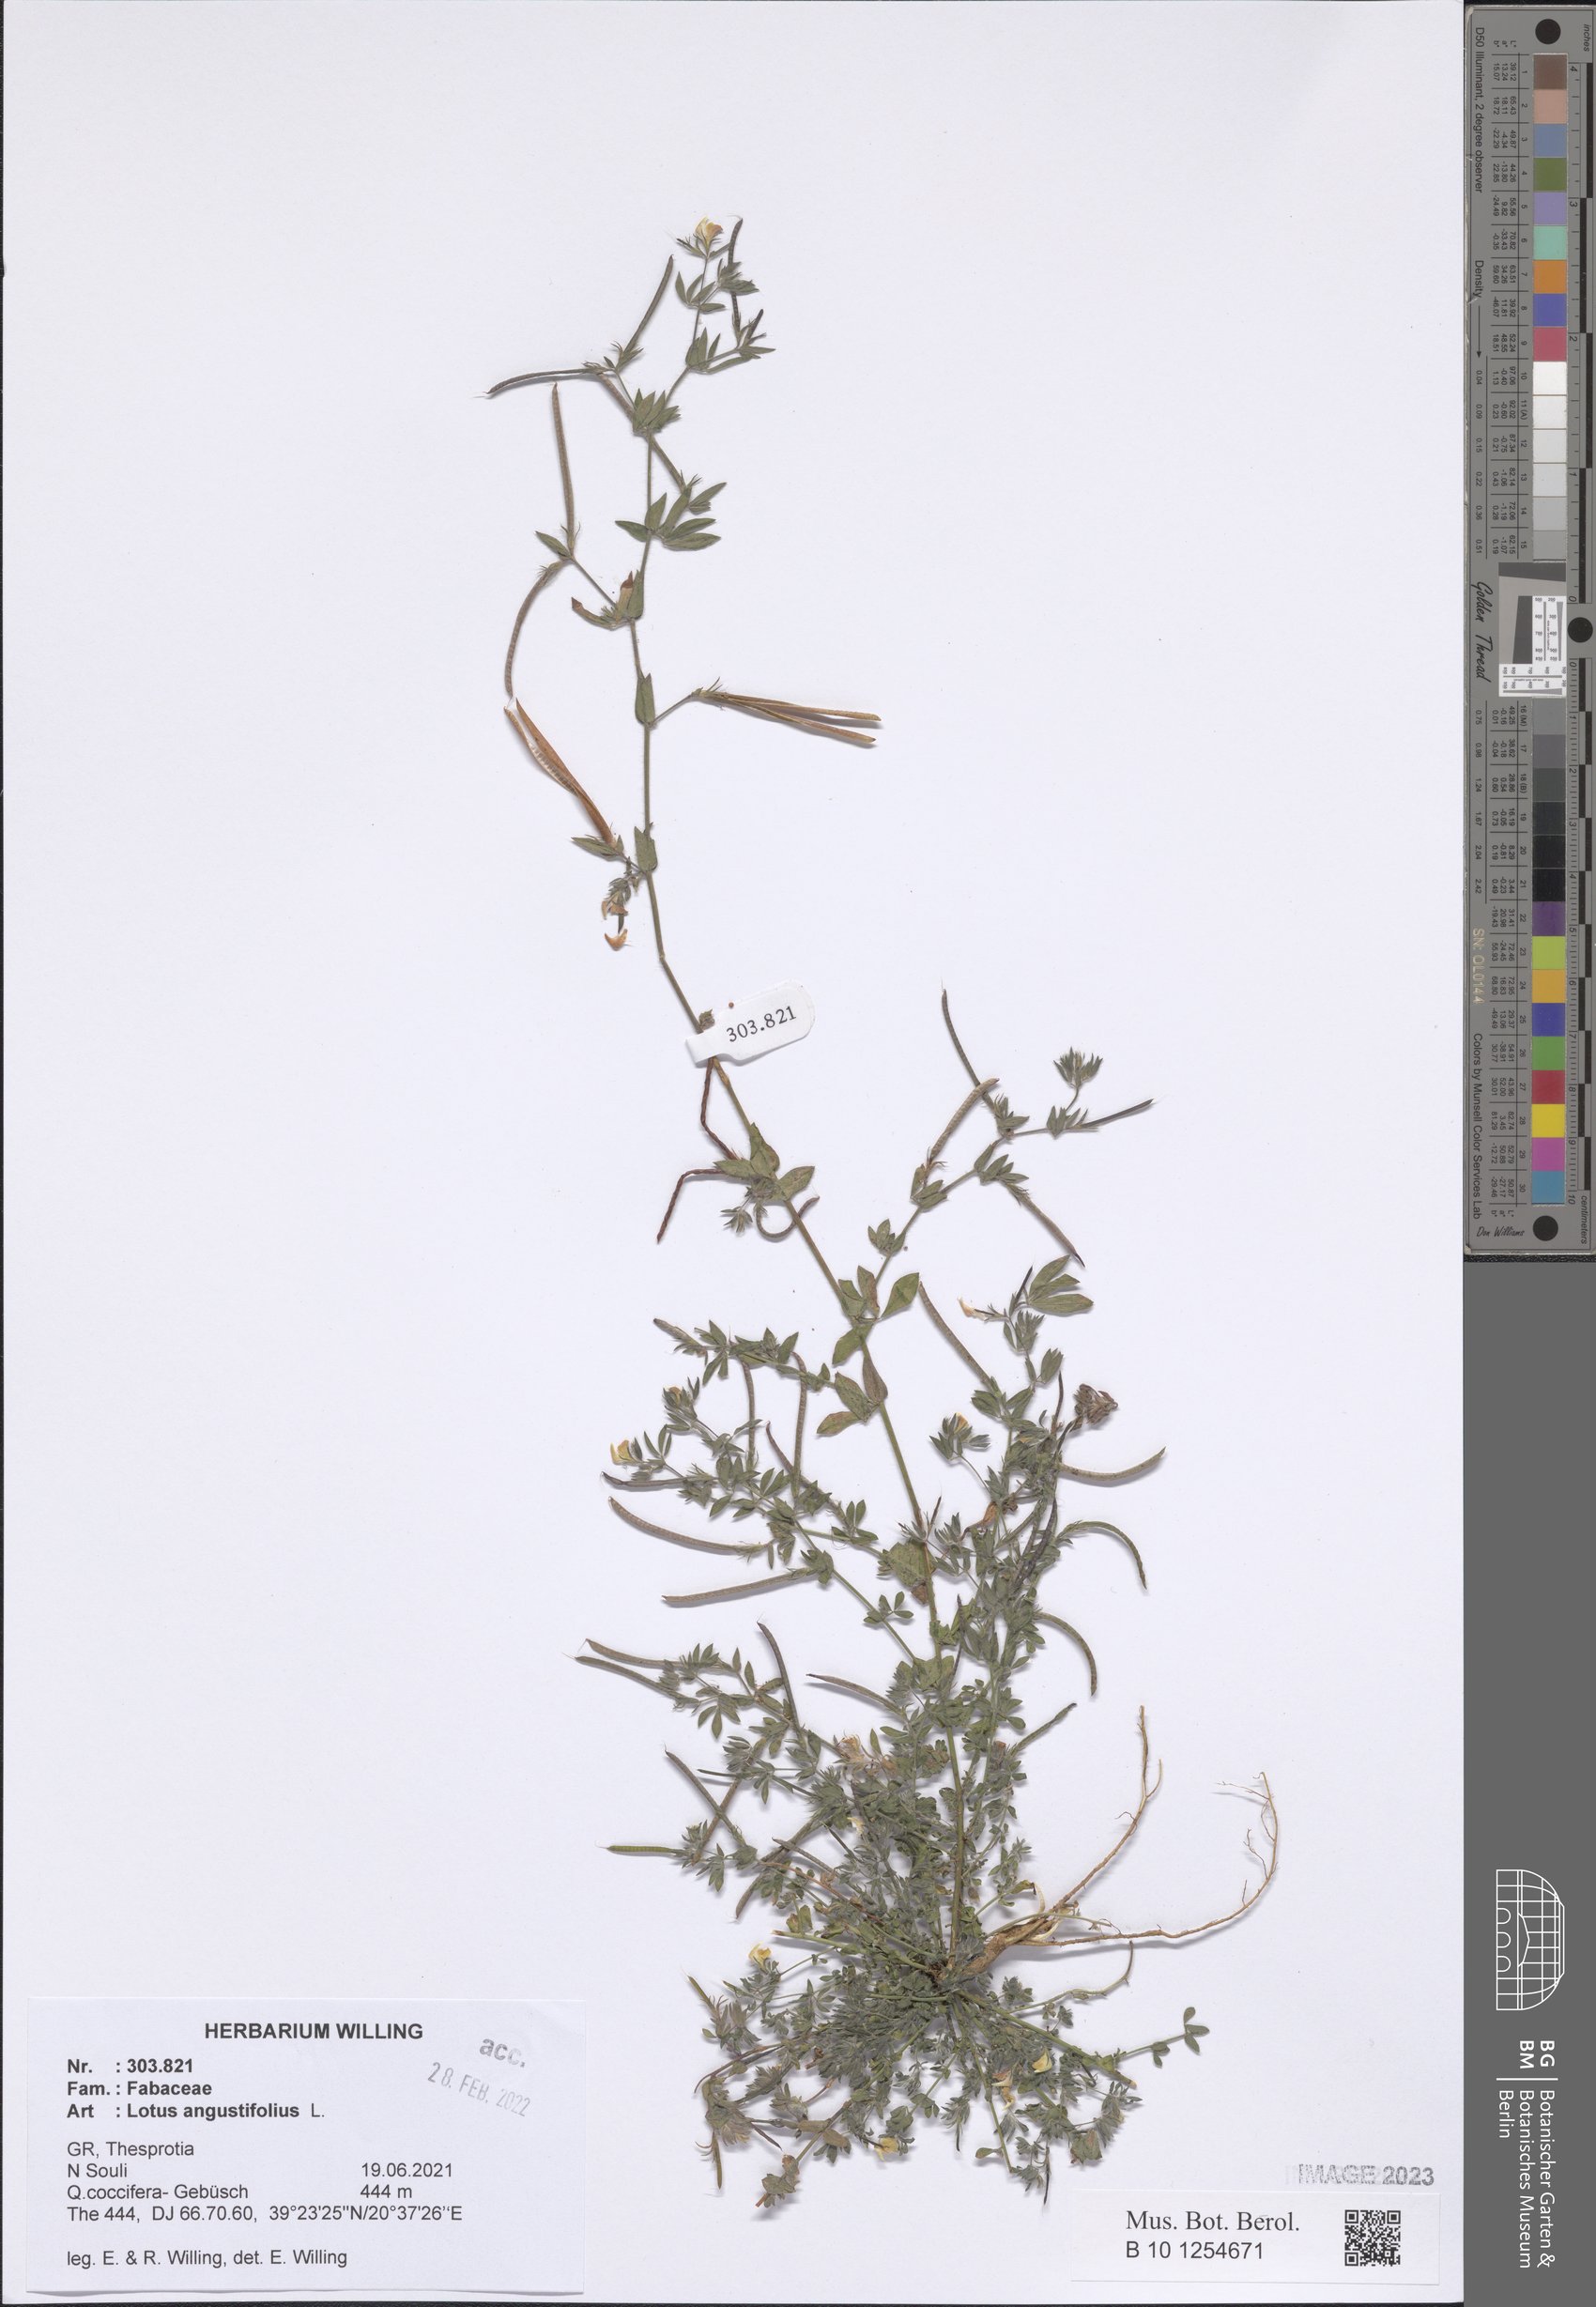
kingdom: Plantae
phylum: Tracheophyta
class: Magnoliopsida
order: Fabales
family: Fabaceae
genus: Lotus
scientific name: Lotus angustissimus
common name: Slender bird's-foot trefoil
